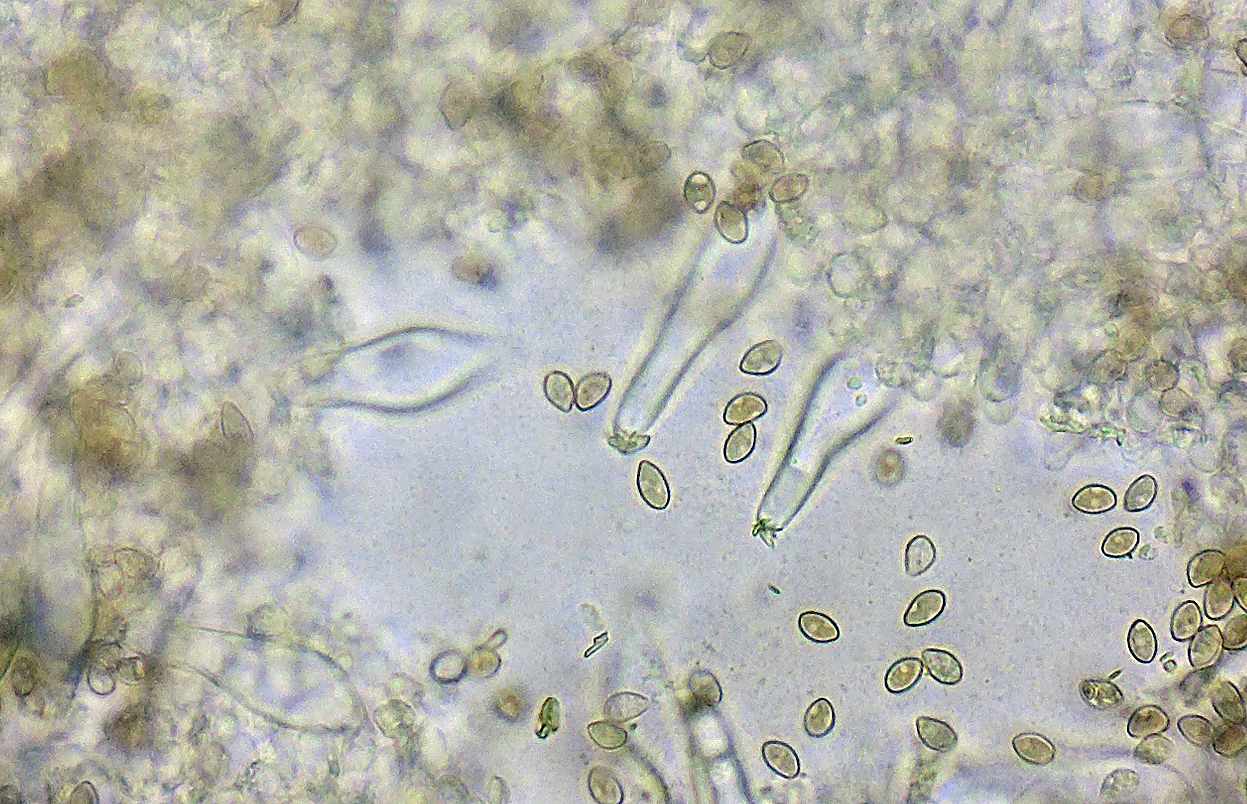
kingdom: Fungi
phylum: Basidiomycota
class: Agaricomycetes
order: Agaricales
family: Inocybaceae
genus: Inocybe
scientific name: Inocybe
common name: trævlhat
